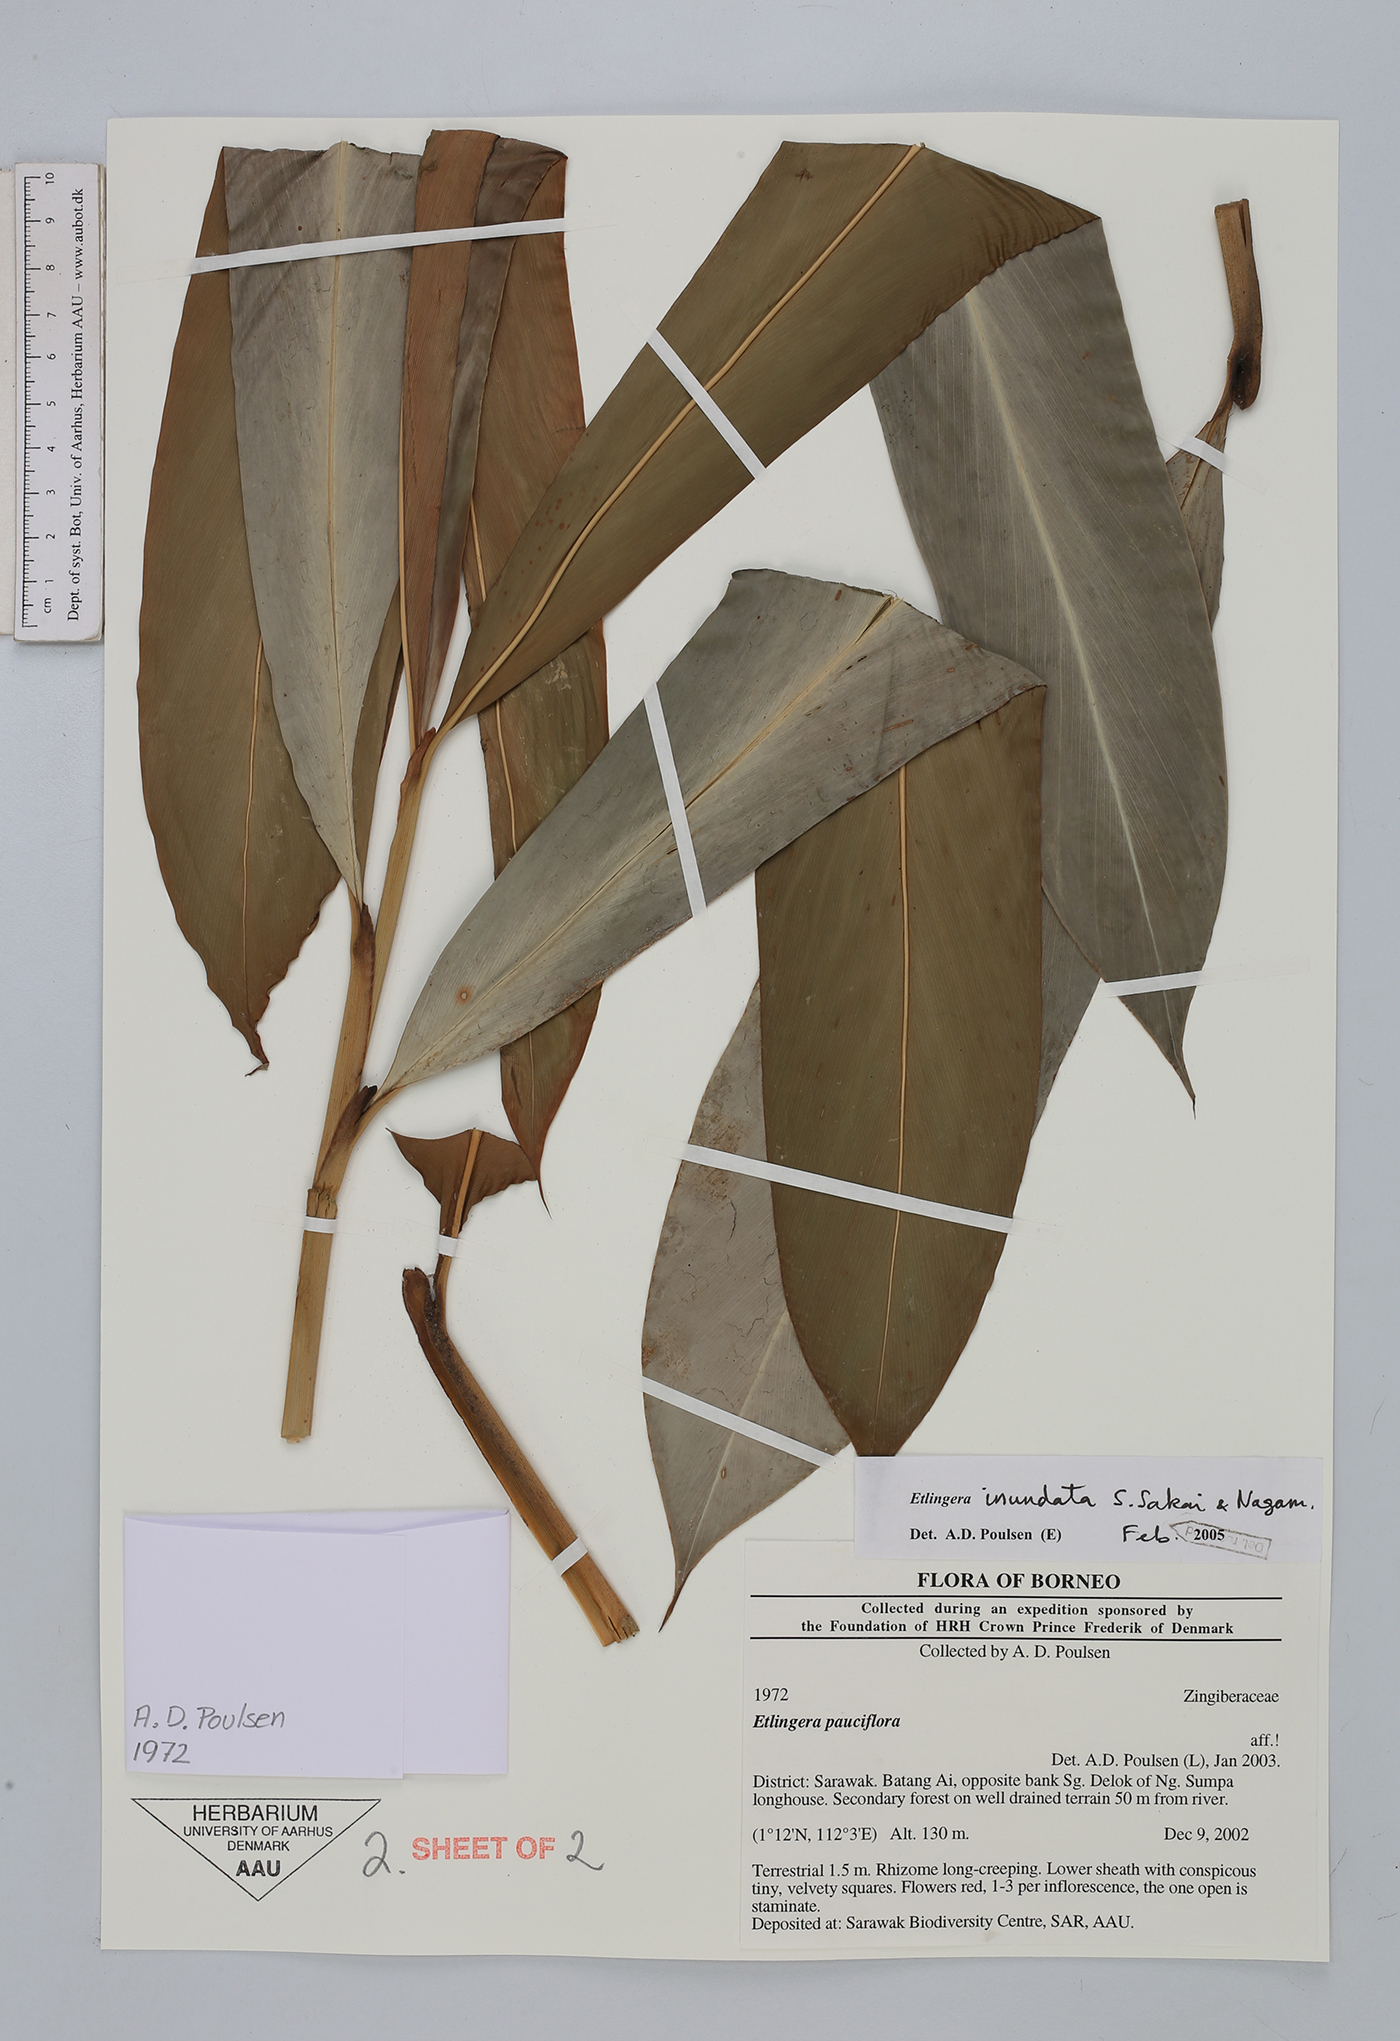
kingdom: Plantae
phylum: Tracheophyta
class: Liliopsida
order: Zingiberales
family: Zingiberaceae
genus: Etlingera
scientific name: Etlingera inundata
